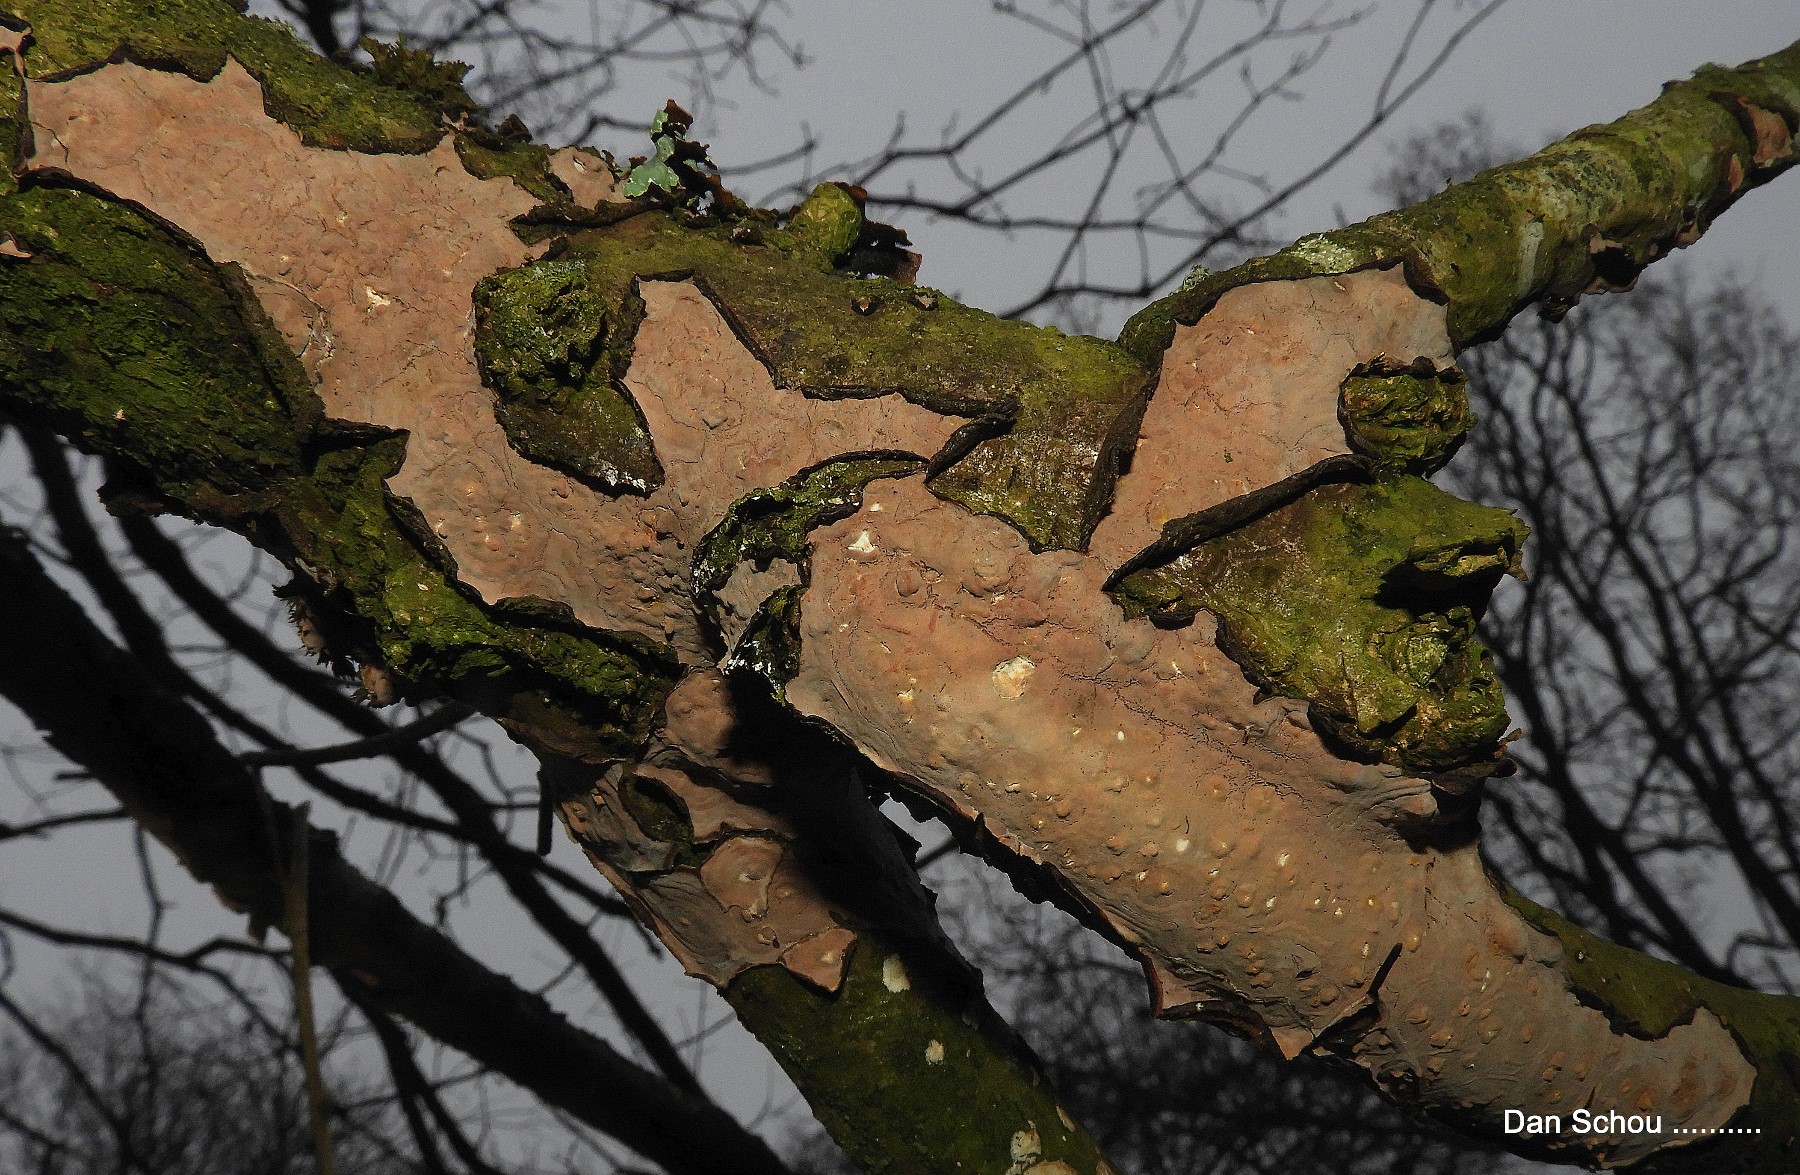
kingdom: Fungi
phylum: Basidiomycota
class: Agaricomycetes
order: Russulales
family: Peniophoraceae
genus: Peniophora
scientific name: Peniophora quercina
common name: ege-voksskind
